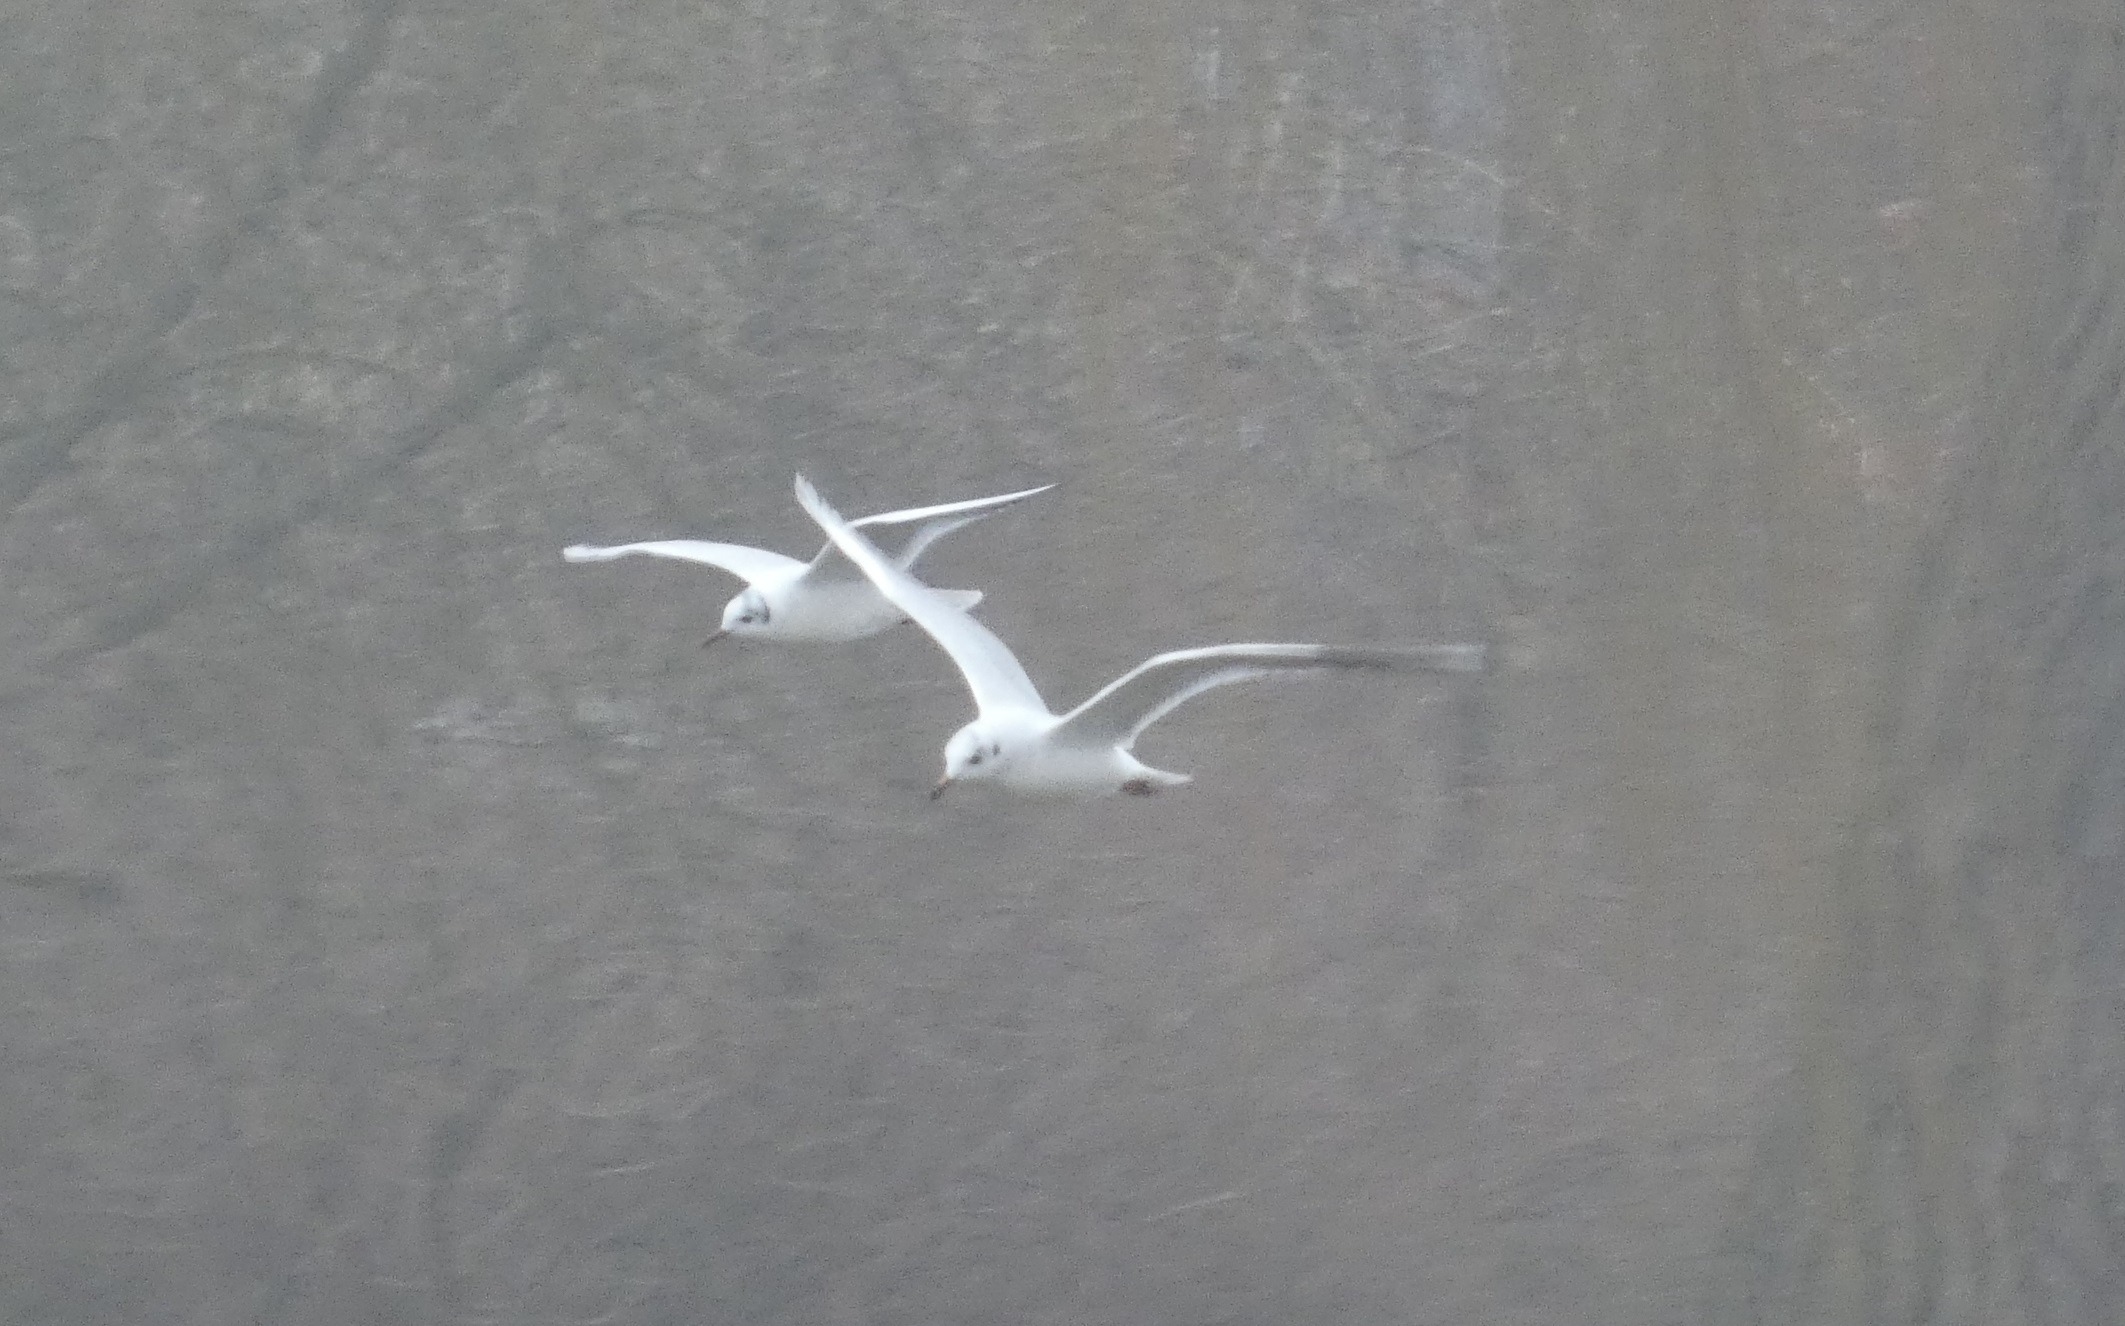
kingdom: Animalia
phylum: Chordata
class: Aves
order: Charadriiformes
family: Laridae
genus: Chroicocephalus
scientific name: Chroicocephalus ridibundus
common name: Hættemåge
